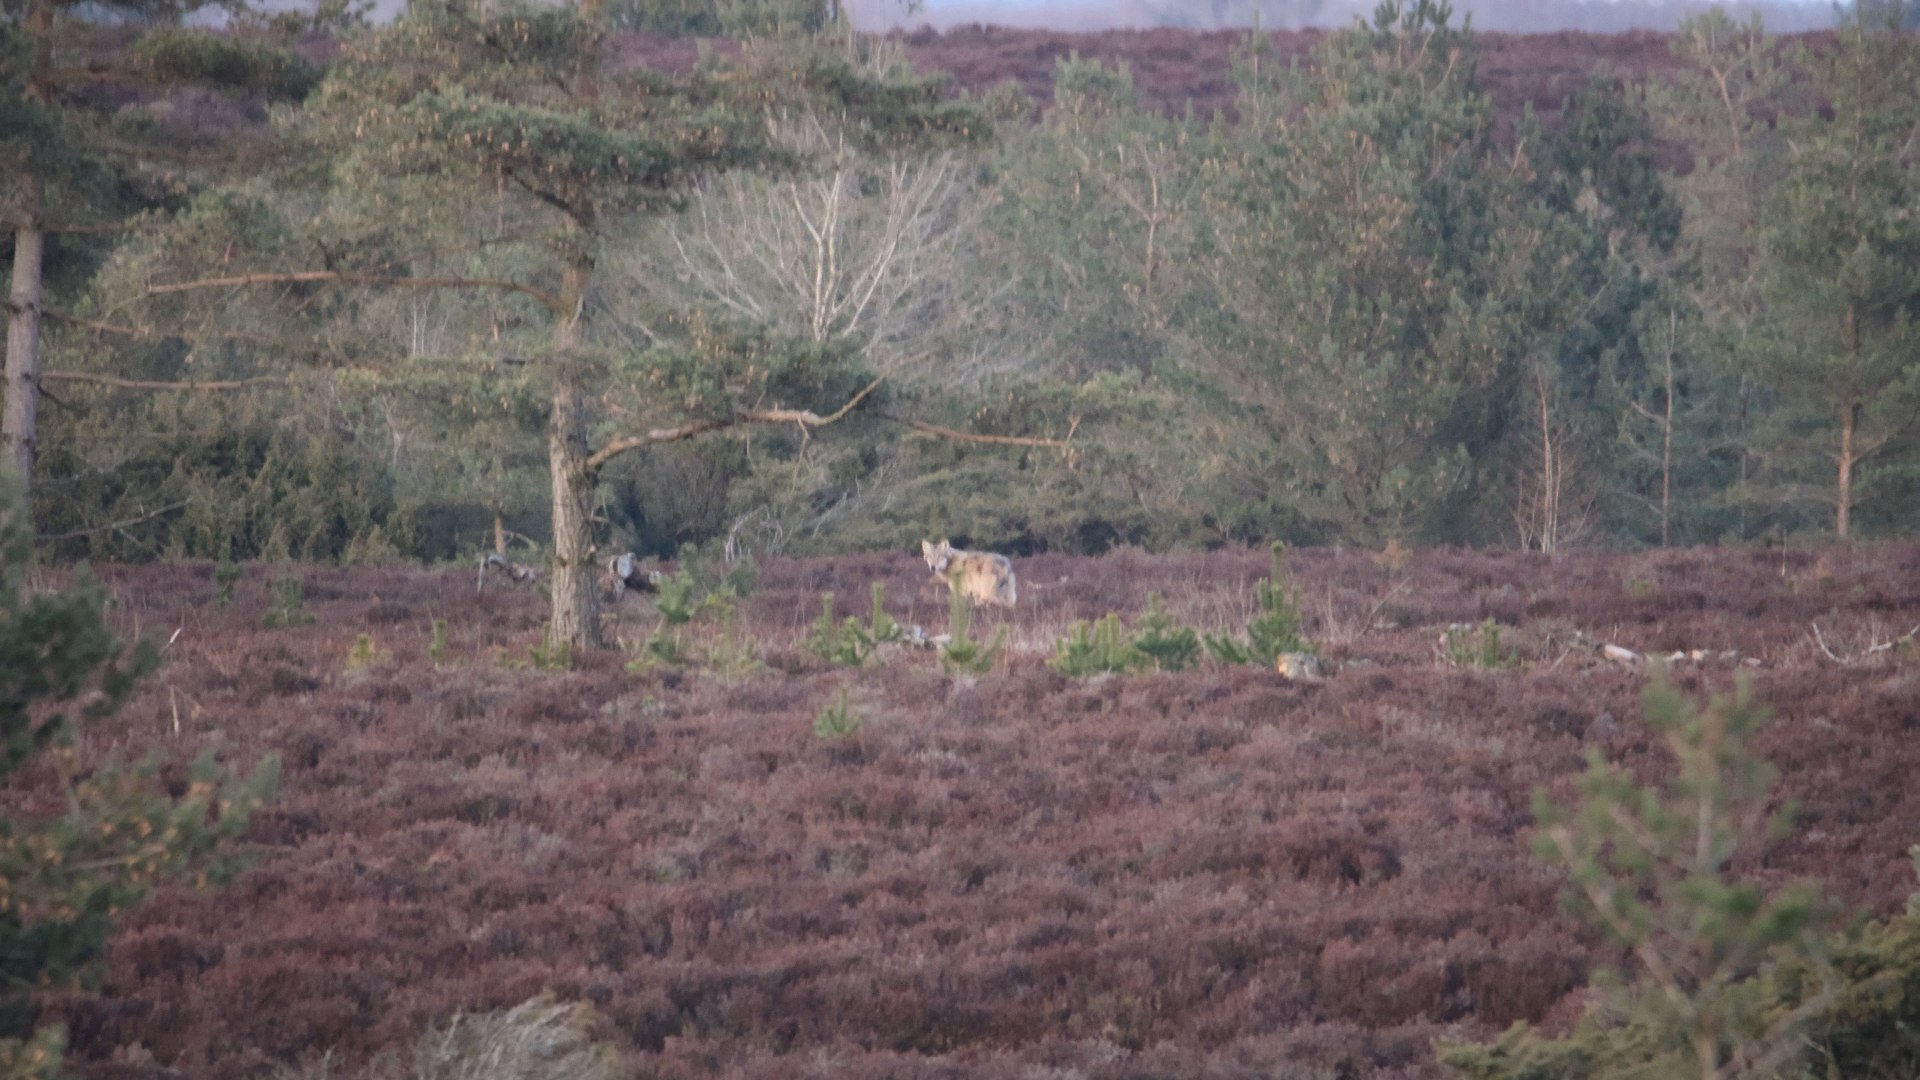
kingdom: Animalia
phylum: Chordata
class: Mammalia
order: Carnivora
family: Canidae
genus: Canis
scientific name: Canis lupus
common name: Ulv
